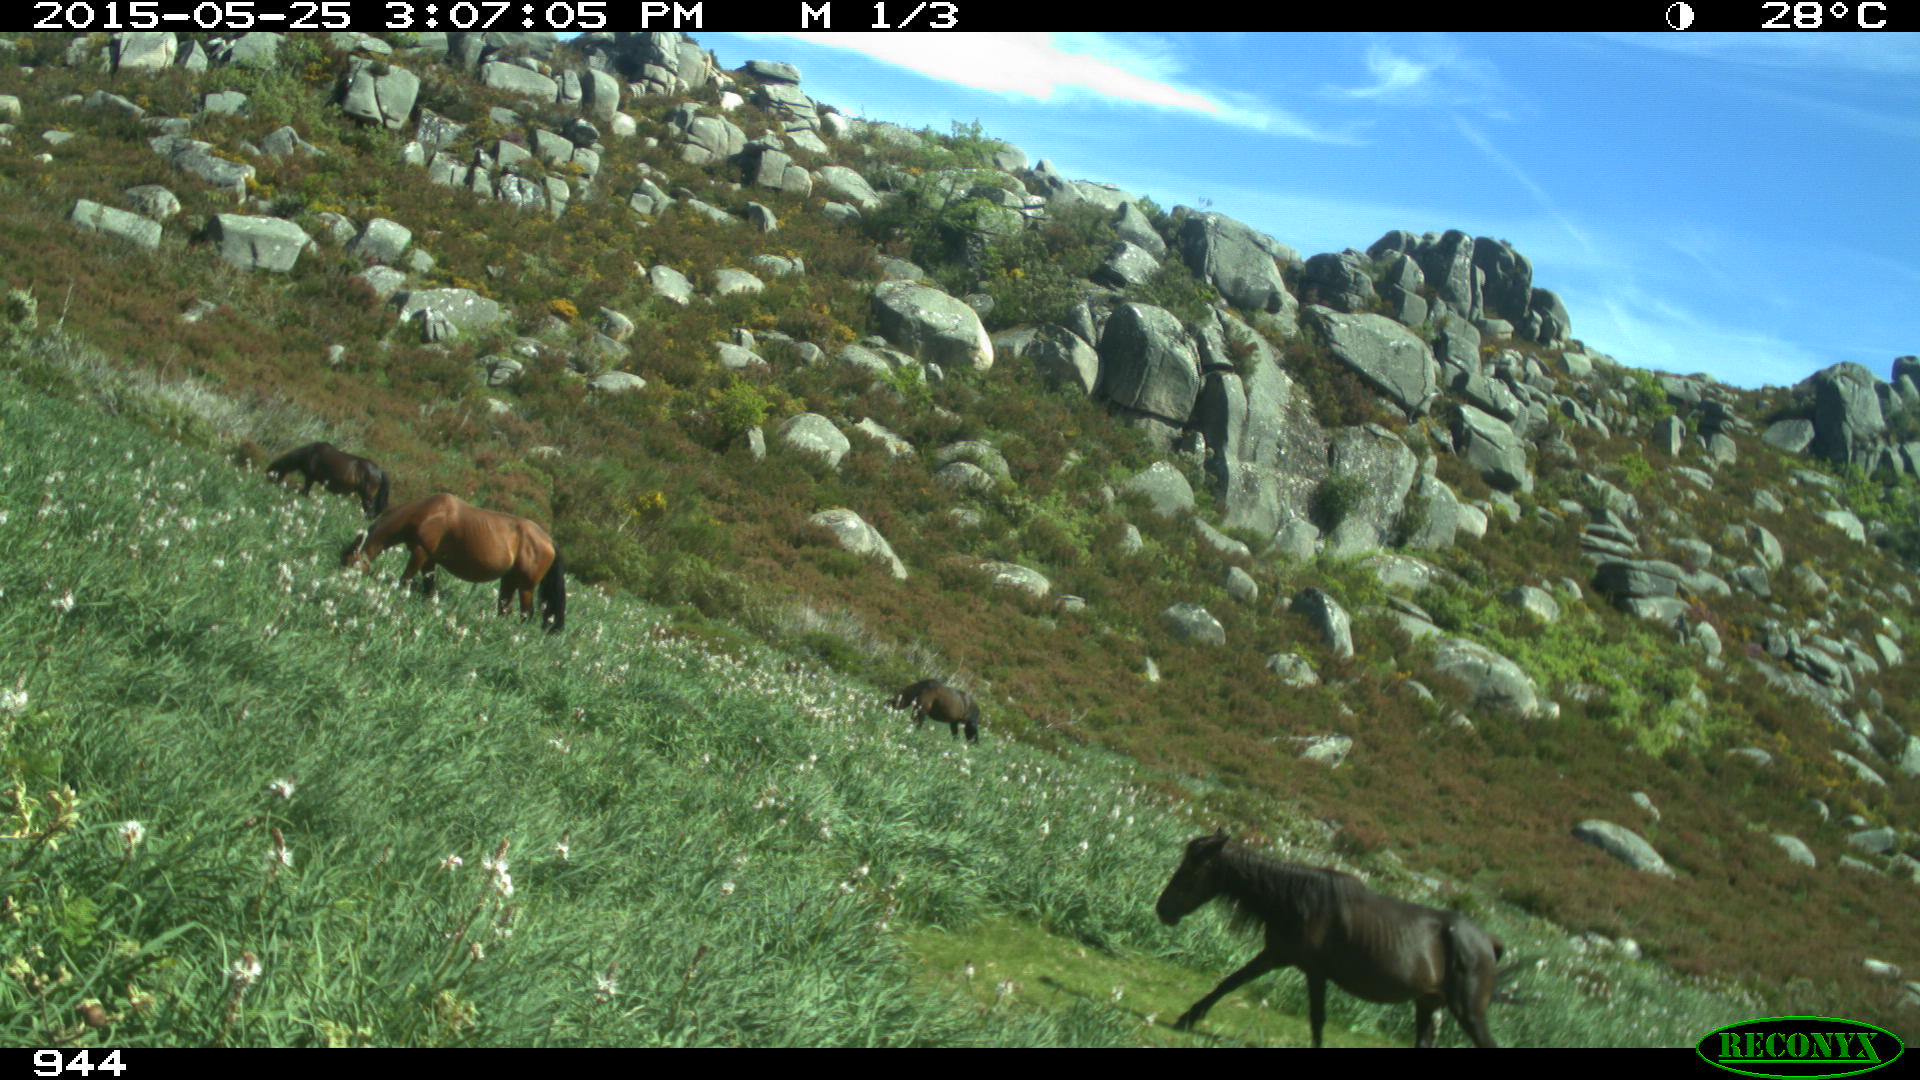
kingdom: Animalia
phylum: Chordata
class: Mammalia
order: Perissodactyla
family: Equidae
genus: Equus
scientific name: Equus caballus
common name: Horse
